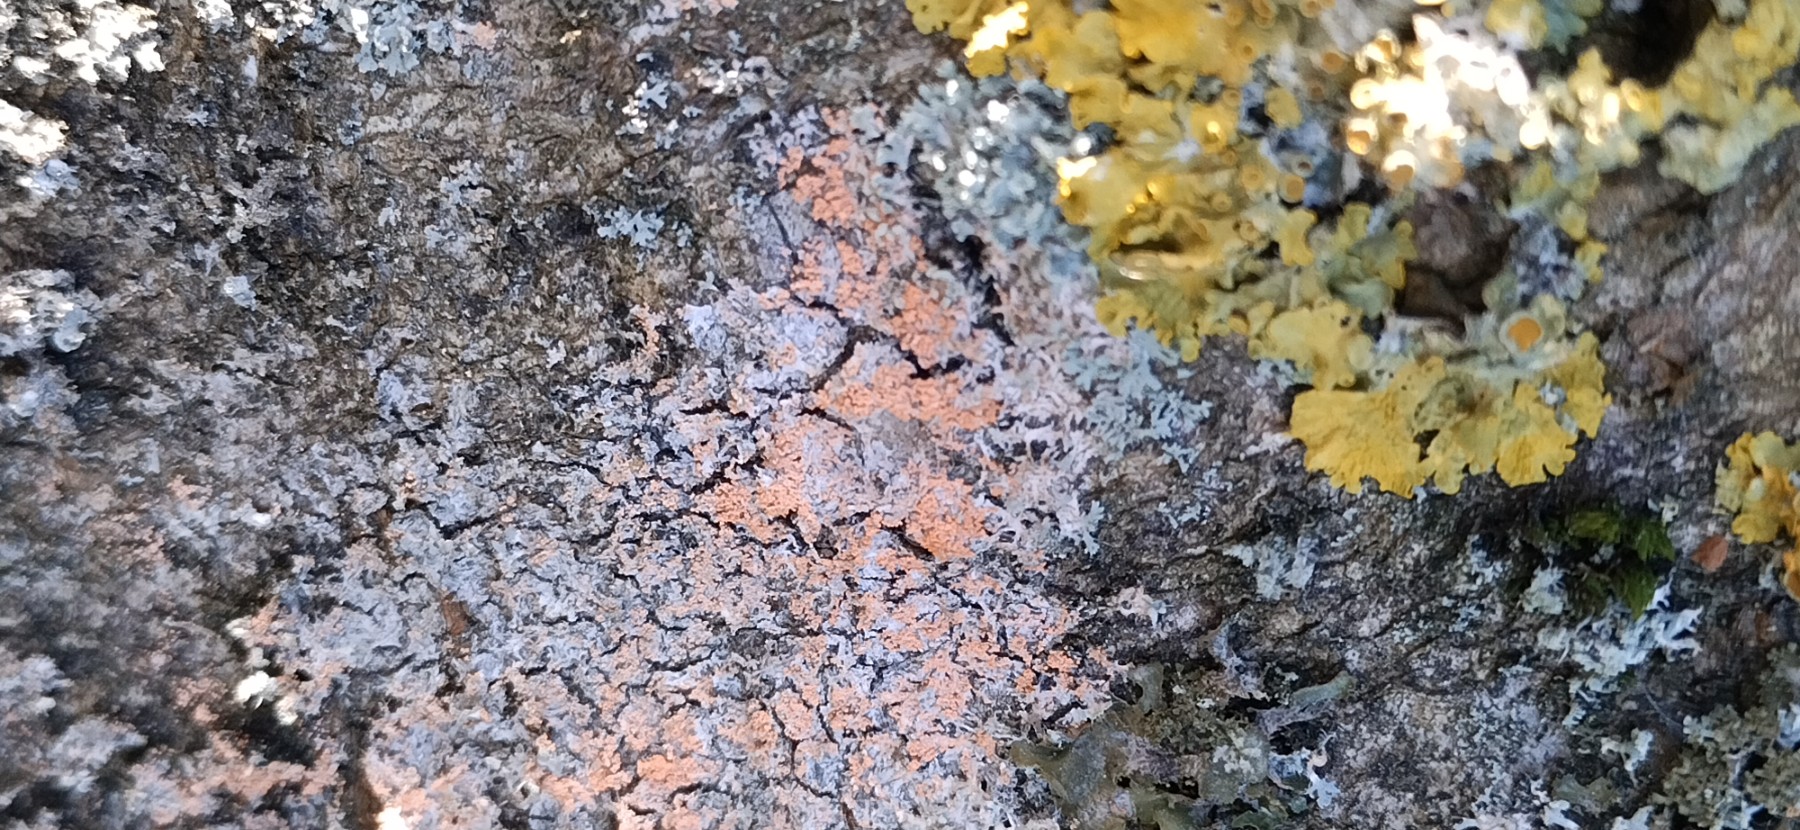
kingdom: Fungi
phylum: Ascomycota
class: Lecanoromycetes
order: Teloschistales
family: Teloschistaceae
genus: Xanthoria
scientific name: Xanthoria parietina
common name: almindelig væggelav
